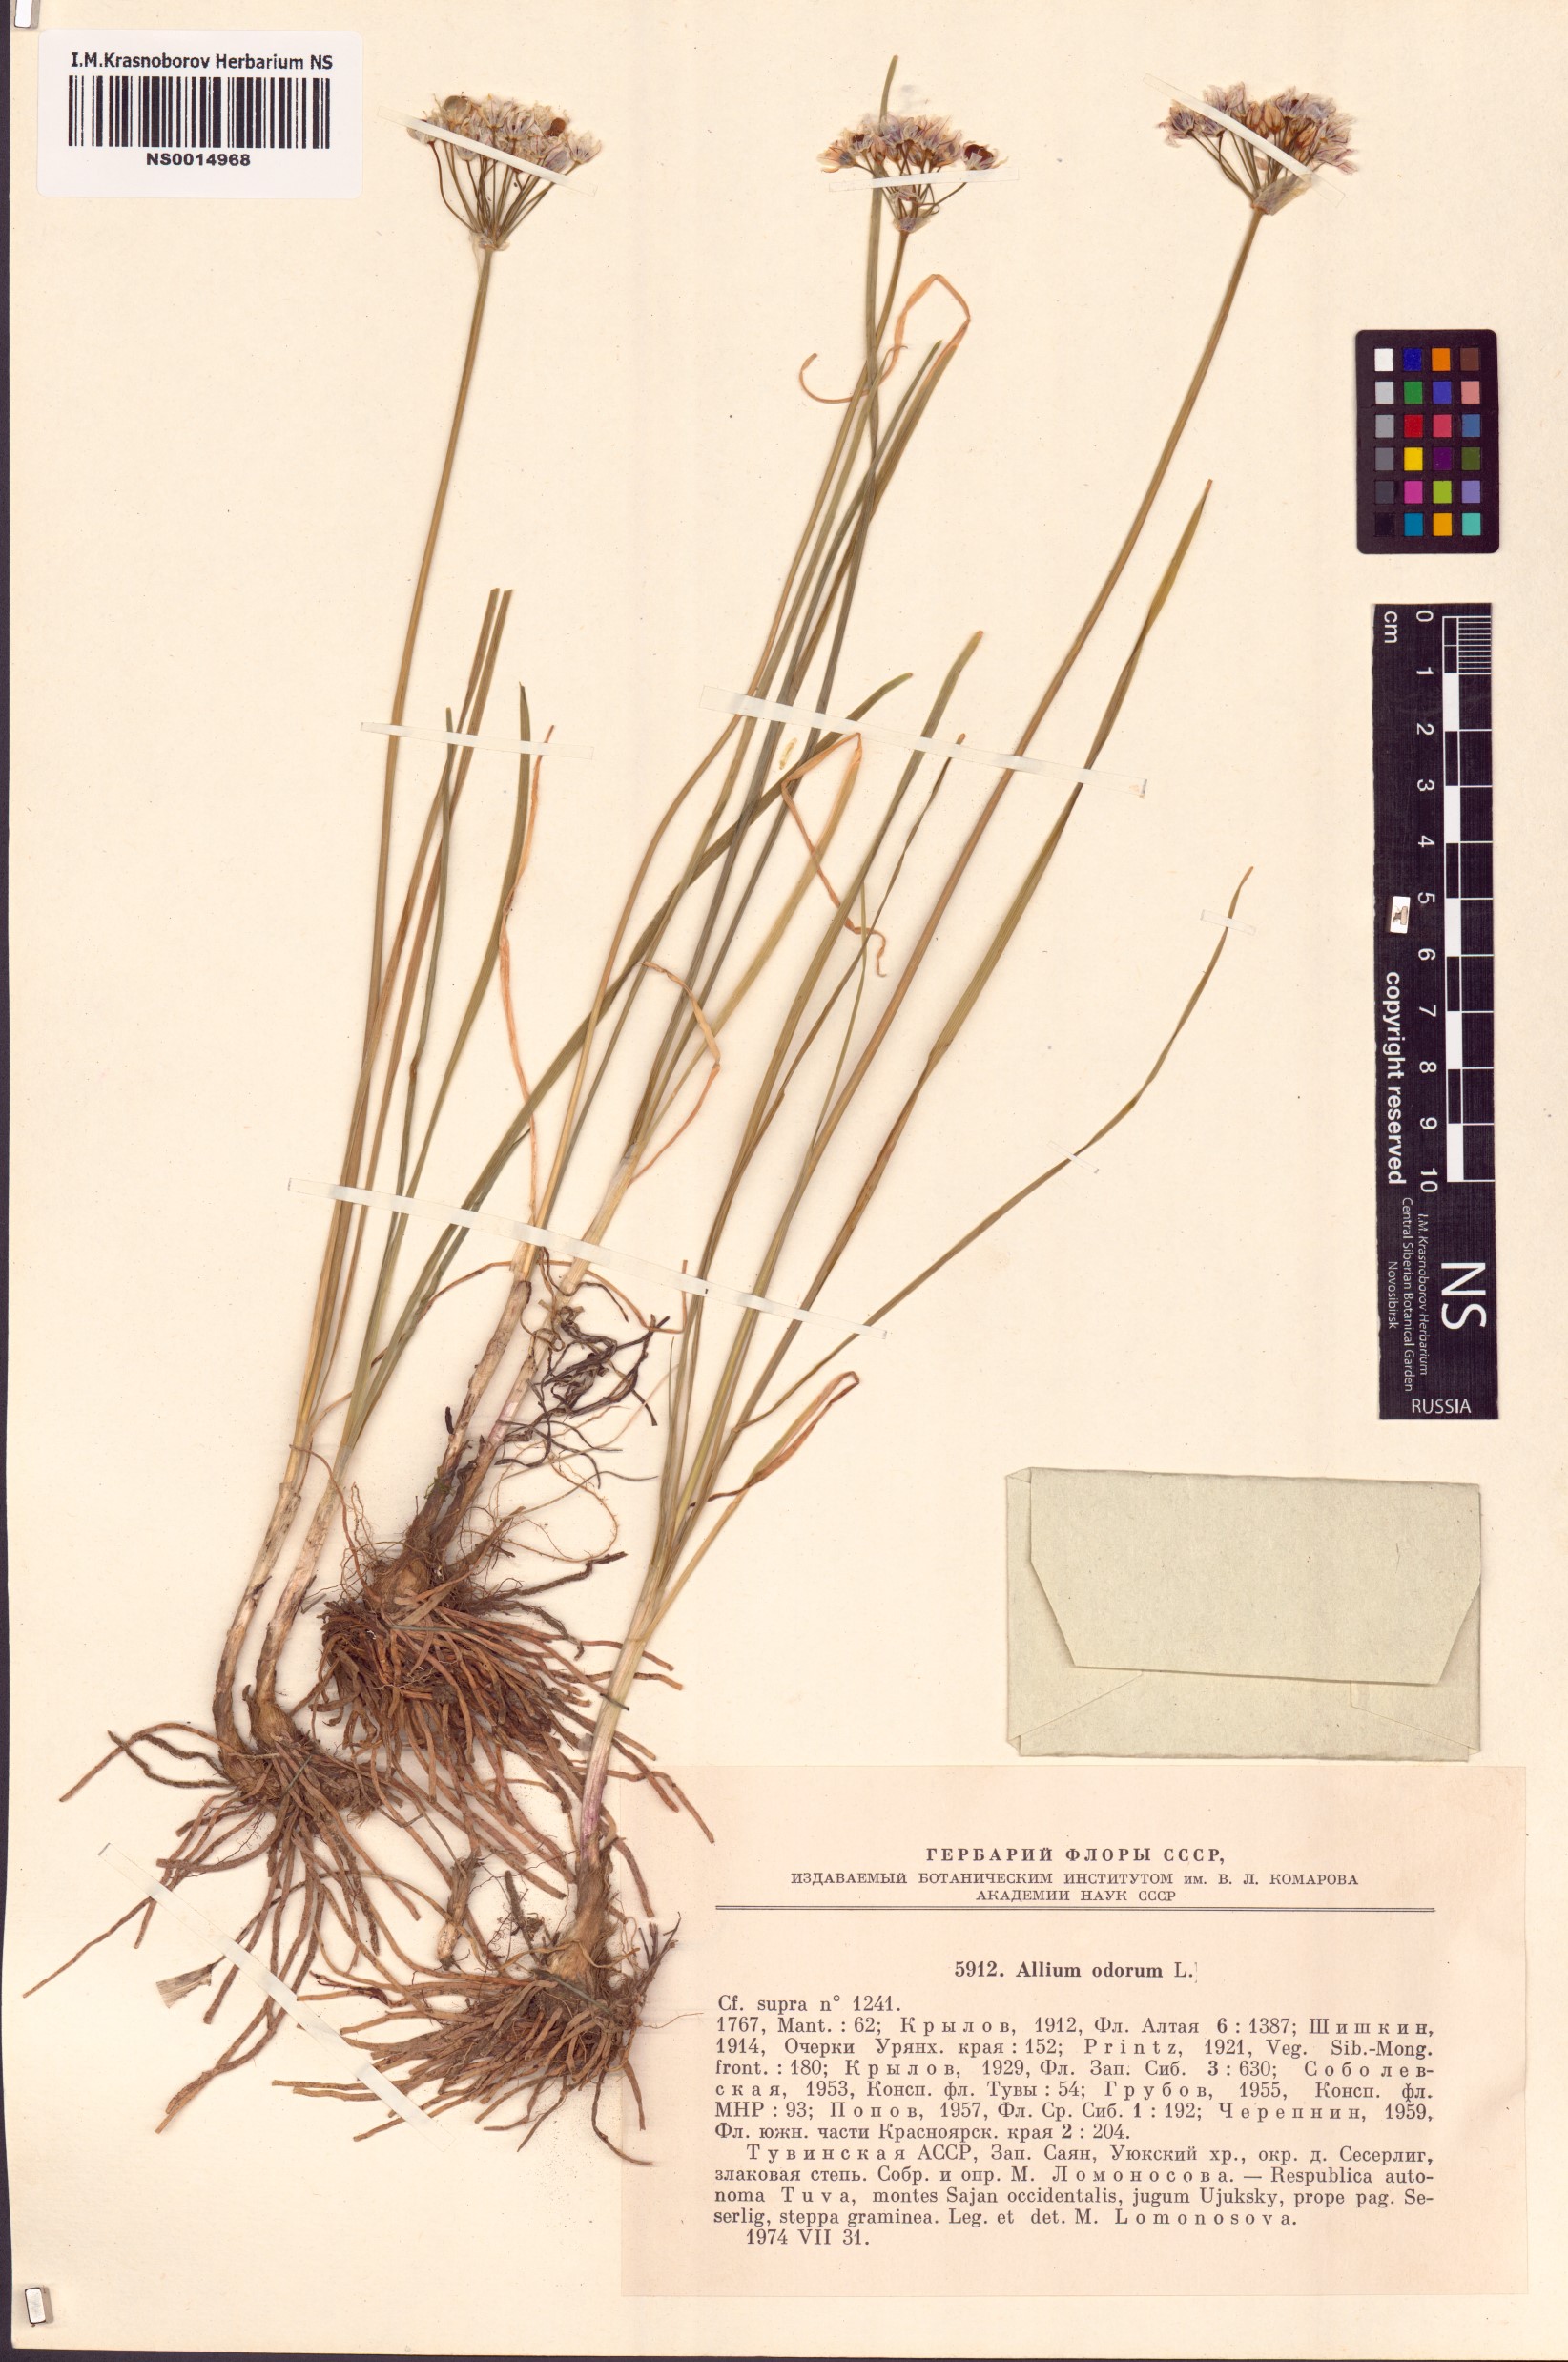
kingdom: Plantae
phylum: Tracheophyta
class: Liliopsida
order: Asparagales
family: Amaryllidaceae
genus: Allium
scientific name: Allium ramosum
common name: Fragrant garlic
